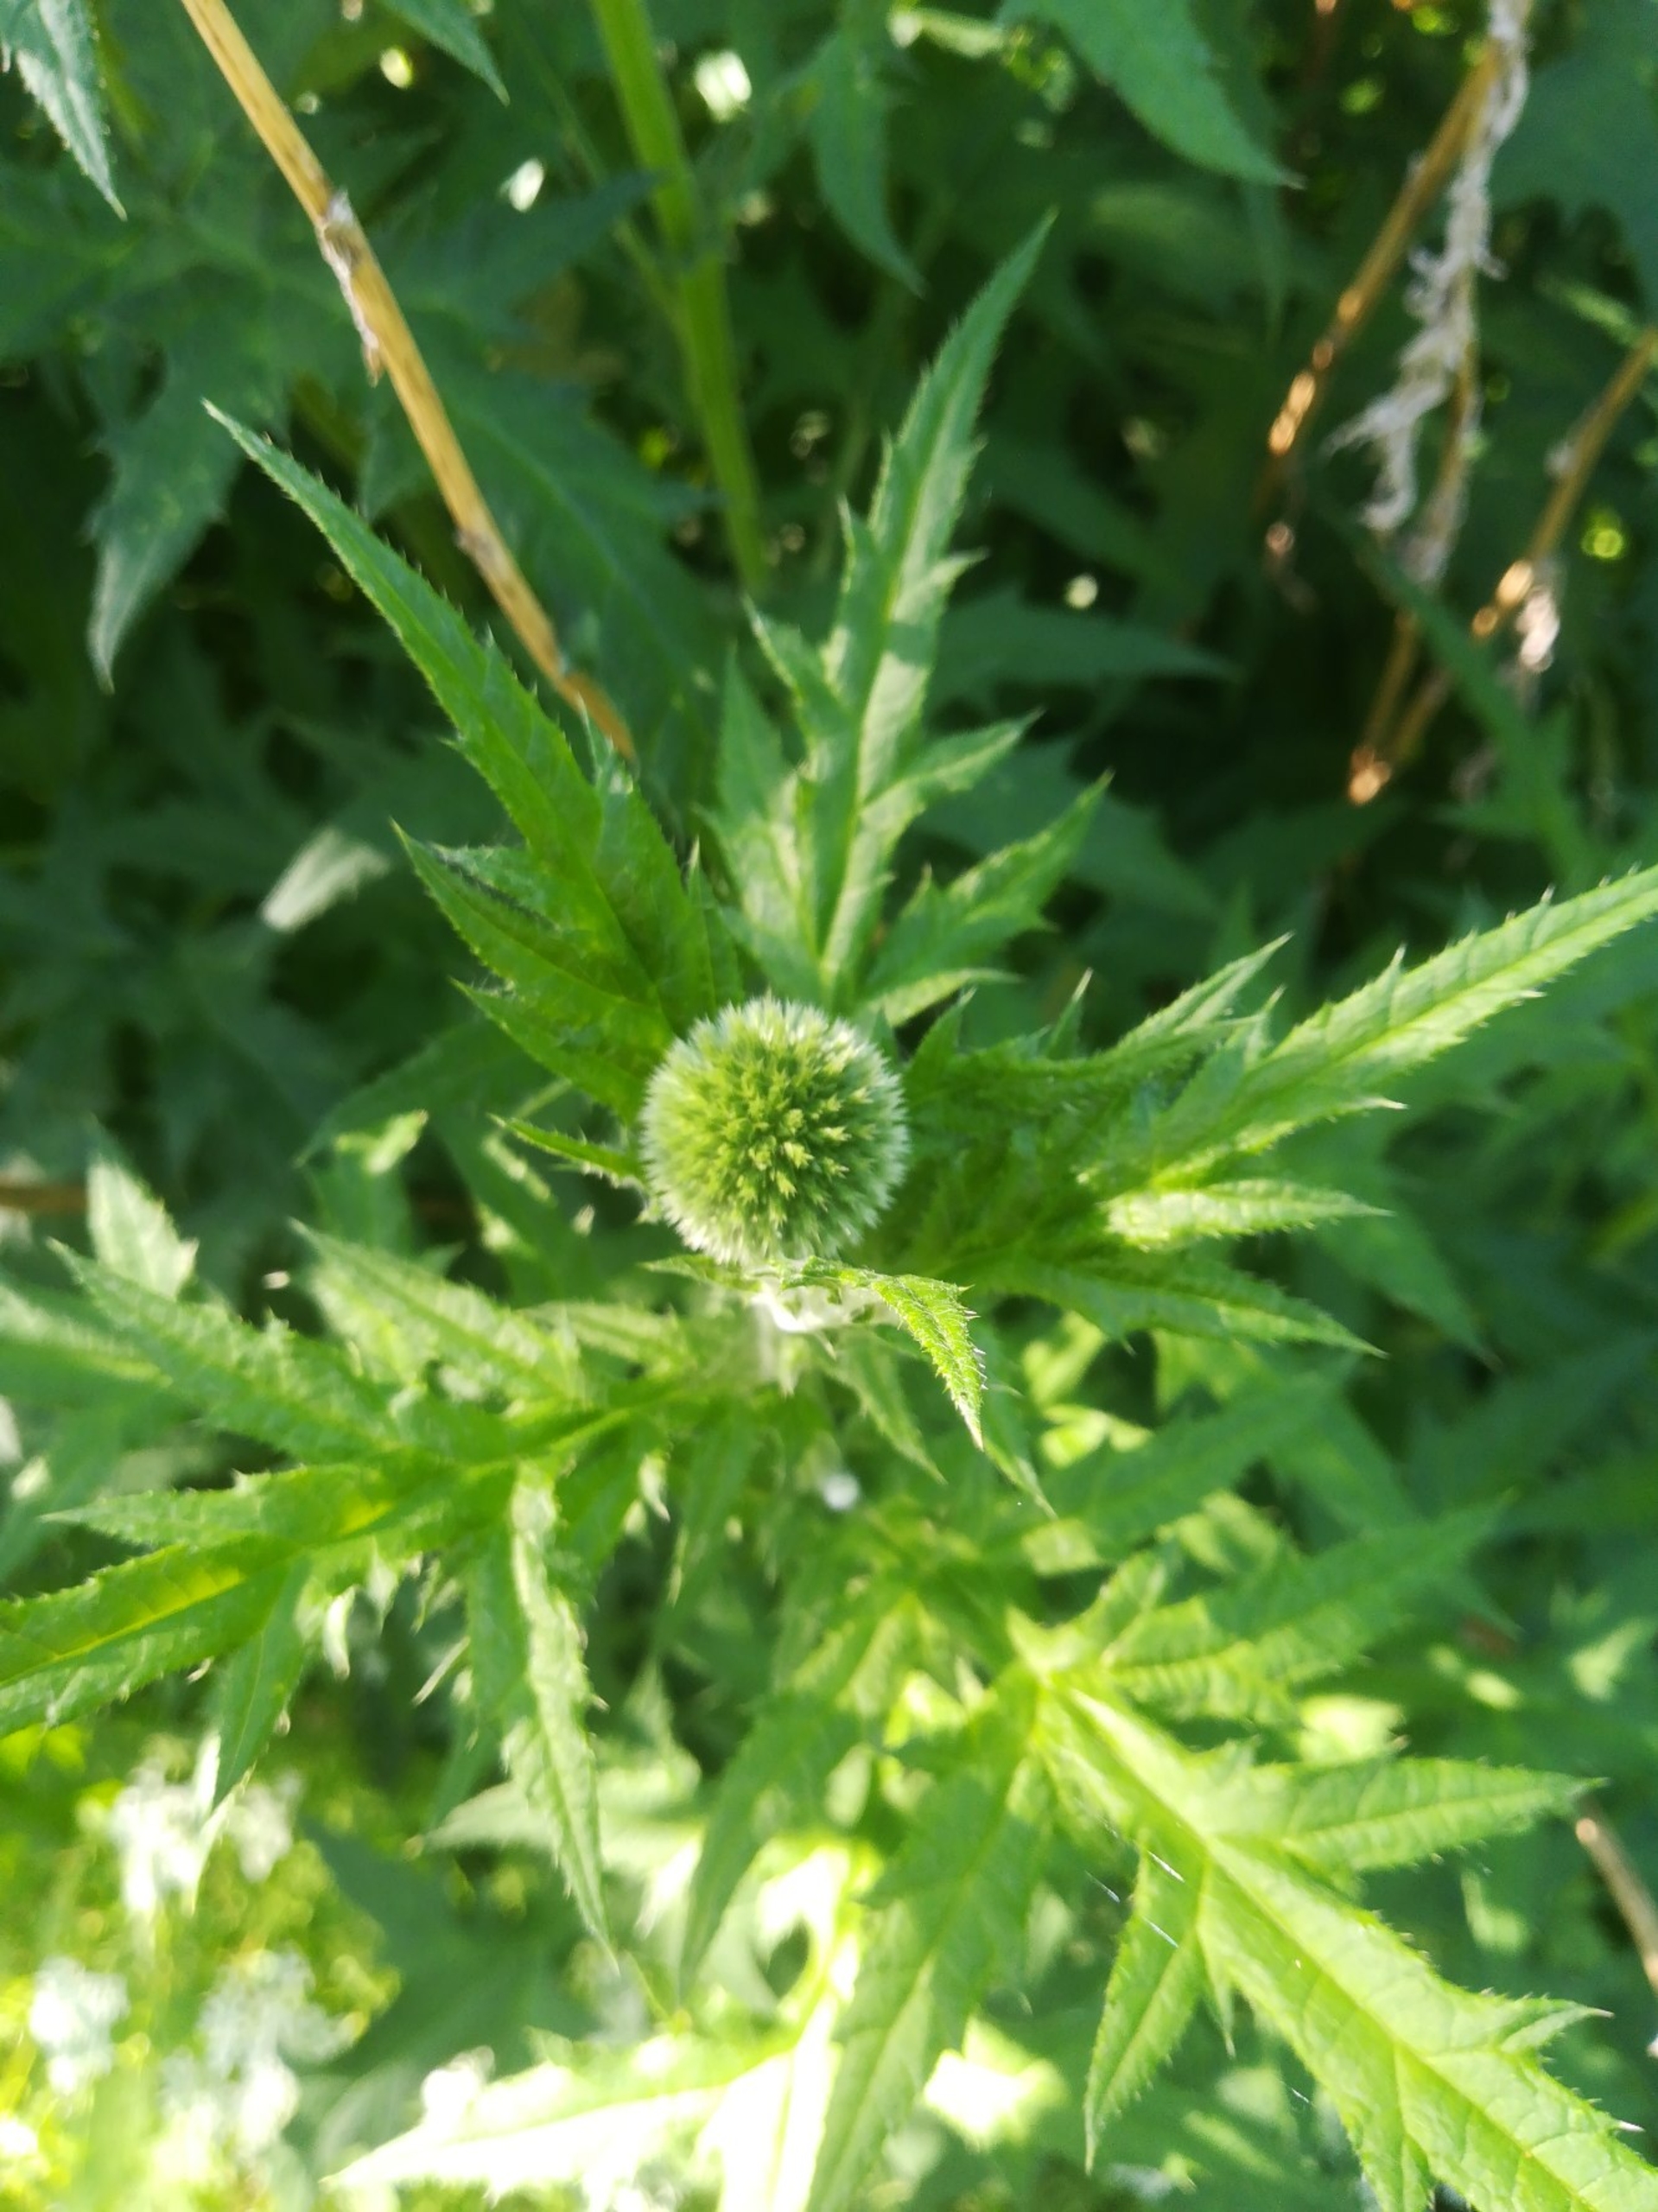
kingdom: Plantae
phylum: Tracheophyta
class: Magnoliopsida
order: Asterales
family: Asteraceae
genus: Echinops
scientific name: Echinops exaltatus
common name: Høj tidselkugle
